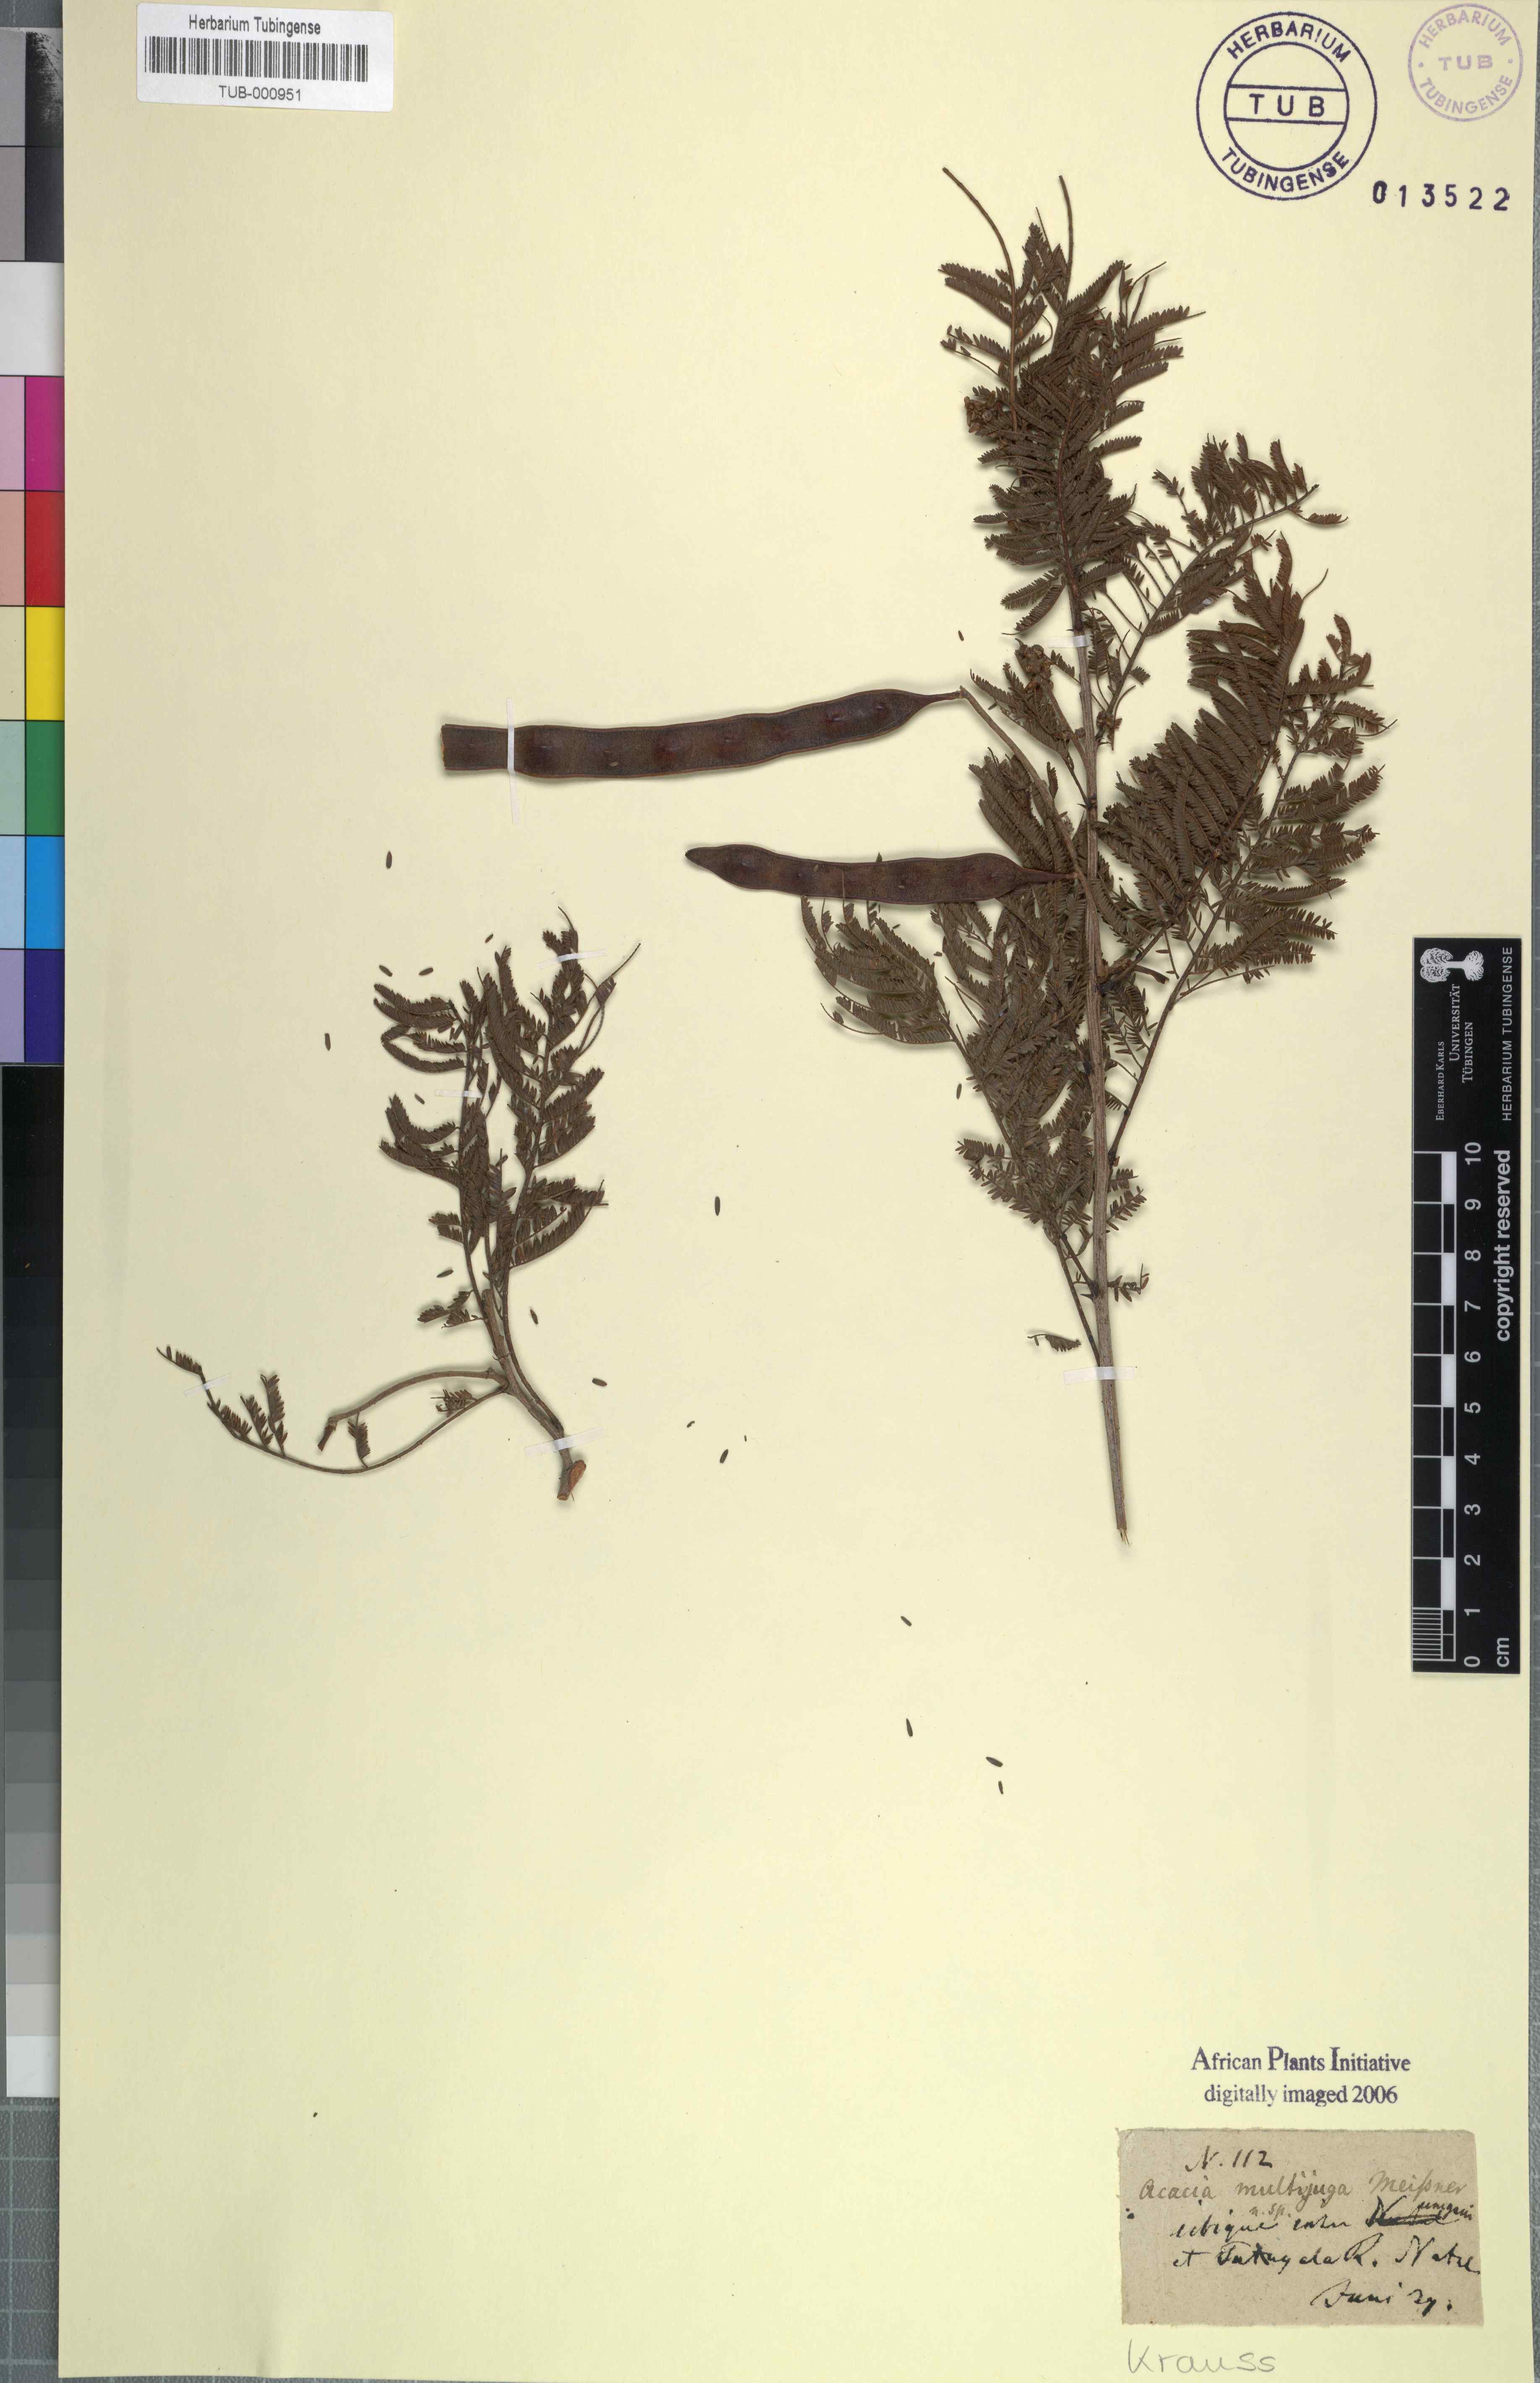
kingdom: Plantae
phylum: Tracheophyta
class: Magnoliopsida
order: Fabales
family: Fabaceae
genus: Senegalia
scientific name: Senegalia caffra
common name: Cat thorn
